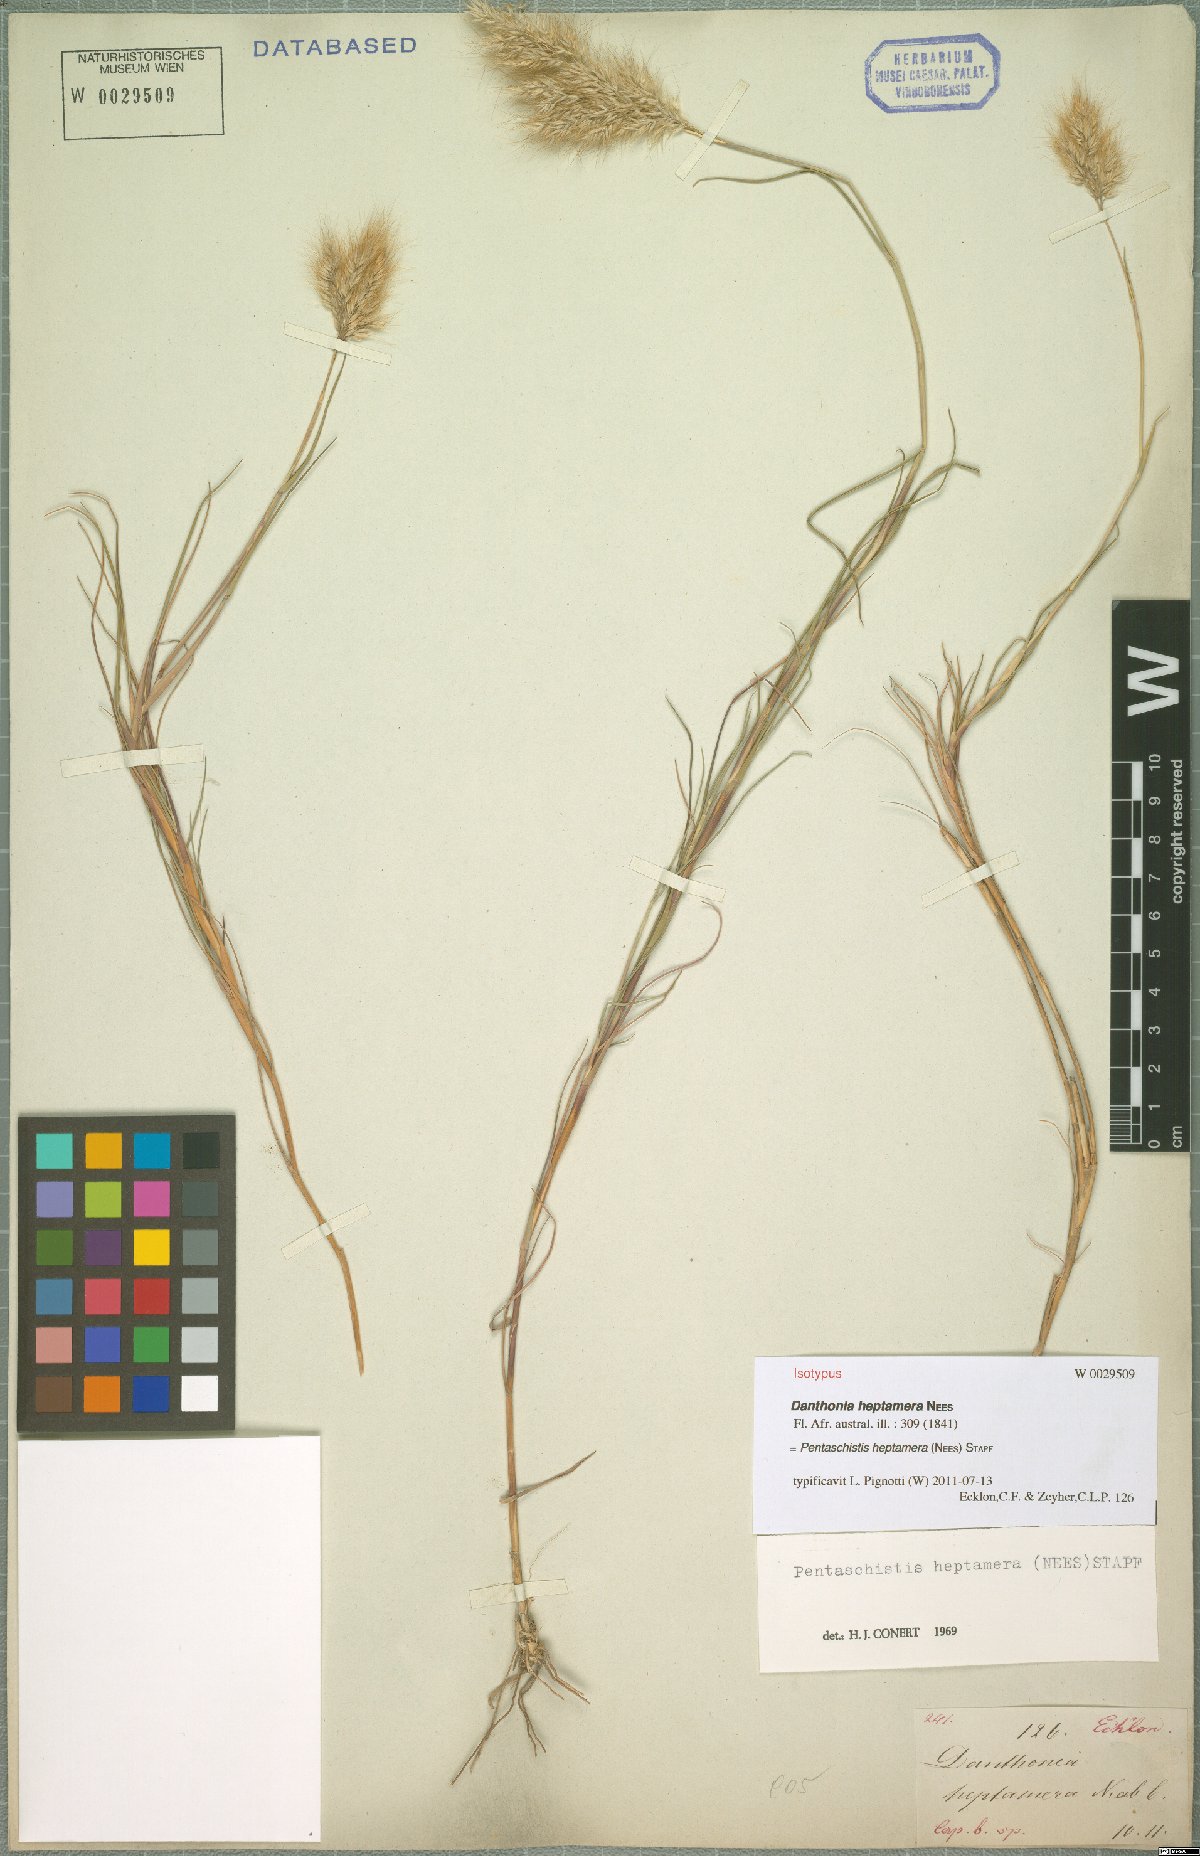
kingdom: Plantae
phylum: Tracheophyta
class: Liliopsida
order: Poales
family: Poaceae
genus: Pentameris
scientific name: Pentameris heptamera
